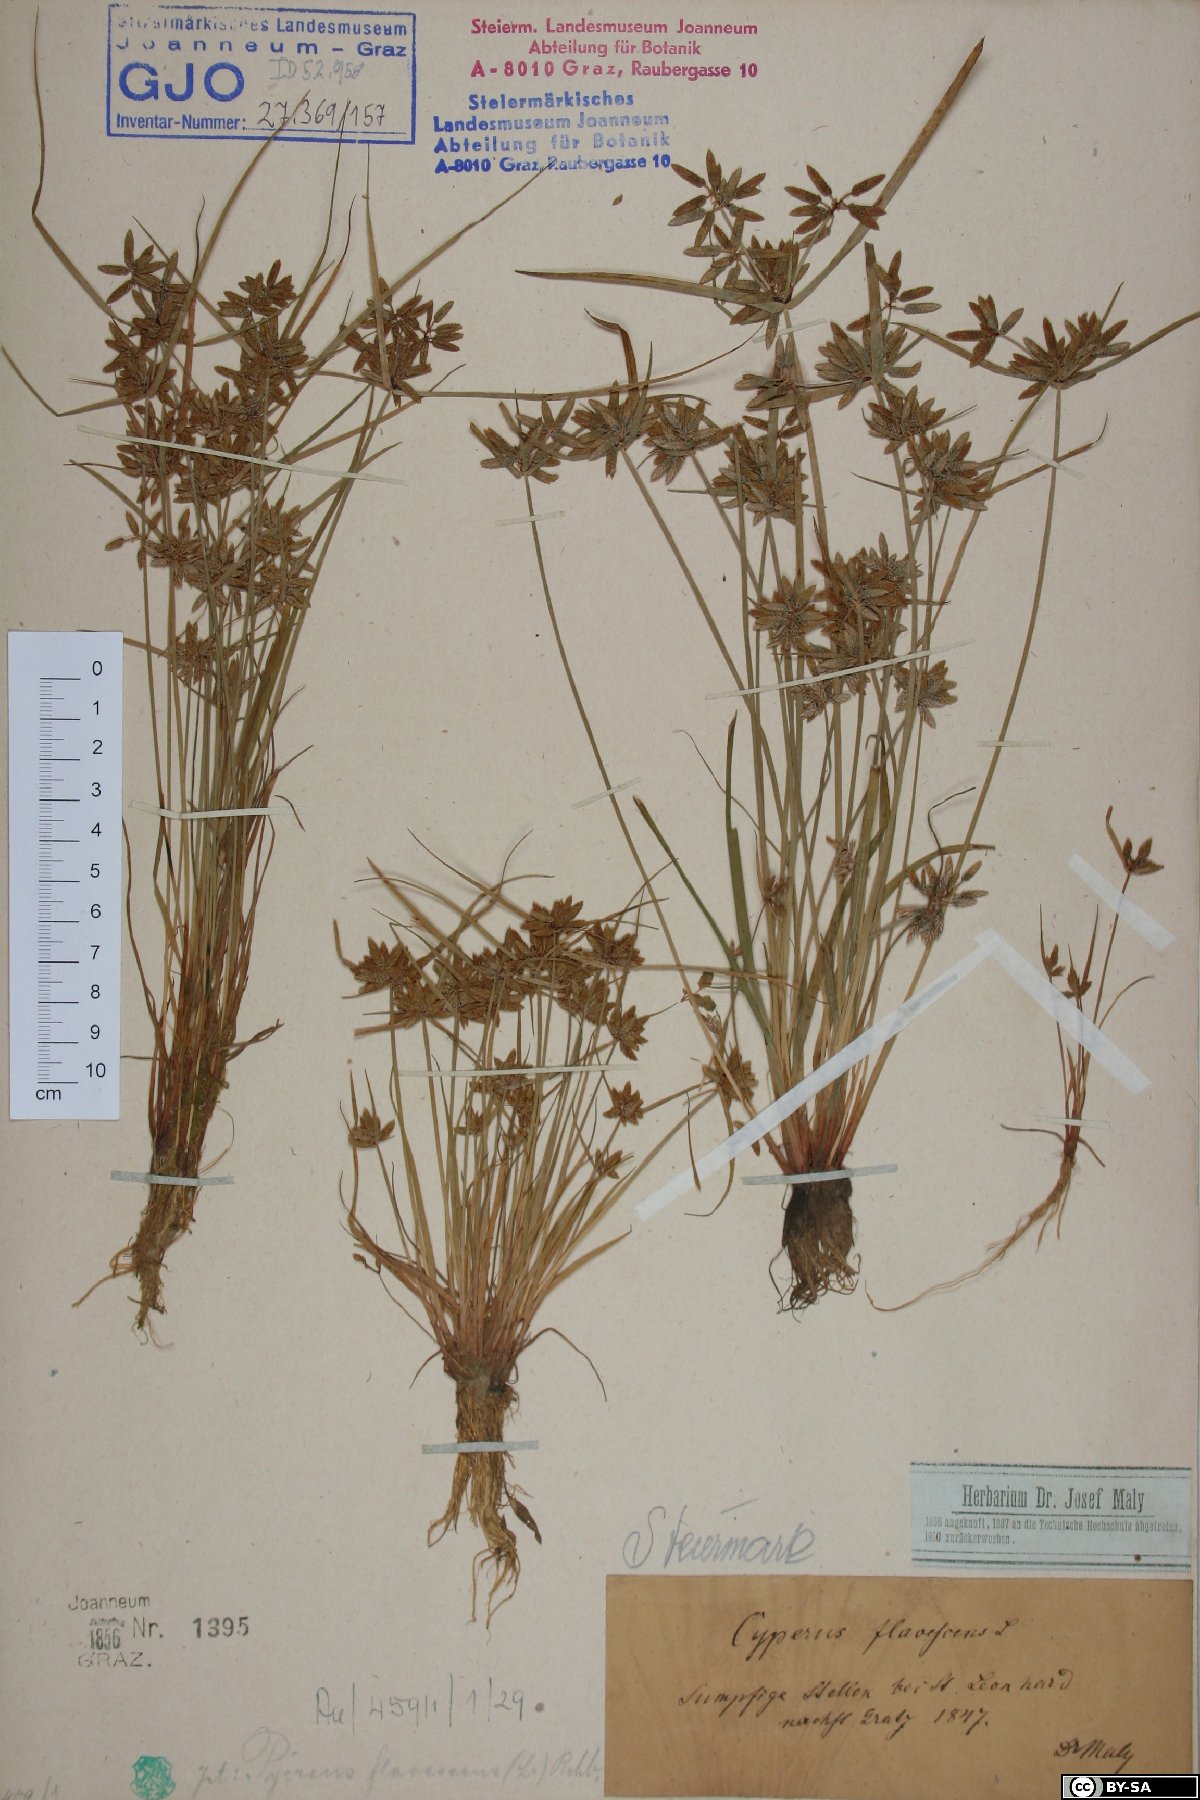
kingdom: Plantae
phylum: Tracheophyta
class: Liliopsida
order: Poales
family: Cyperaceae
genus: Cyperus
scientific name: Cyperus flavescens
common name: Yellow galingale
